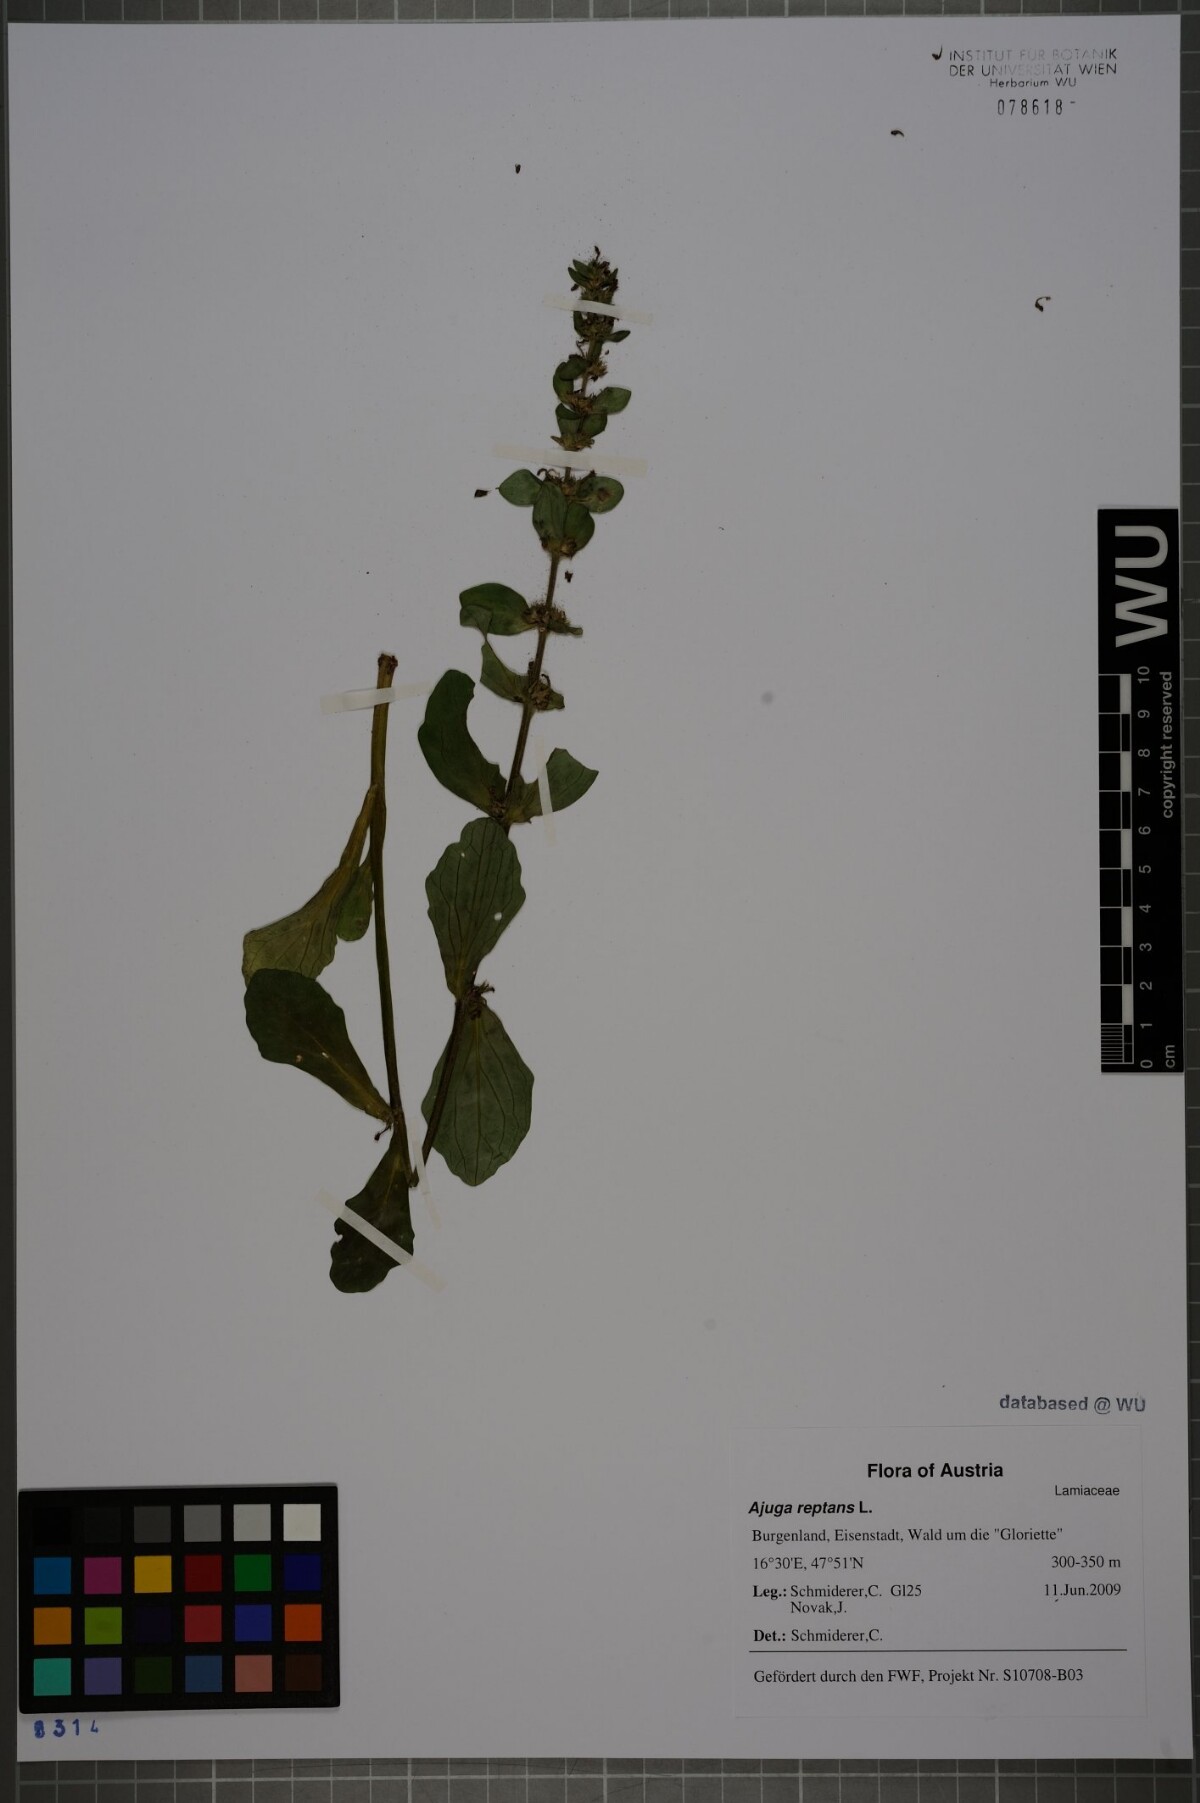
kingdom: Plantae
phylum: Tracheophyta
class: Magnoliopsida
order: Lamiales
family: Lamiaceae
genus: Ajuga
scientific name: Ajuga reptans
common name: Bugle
